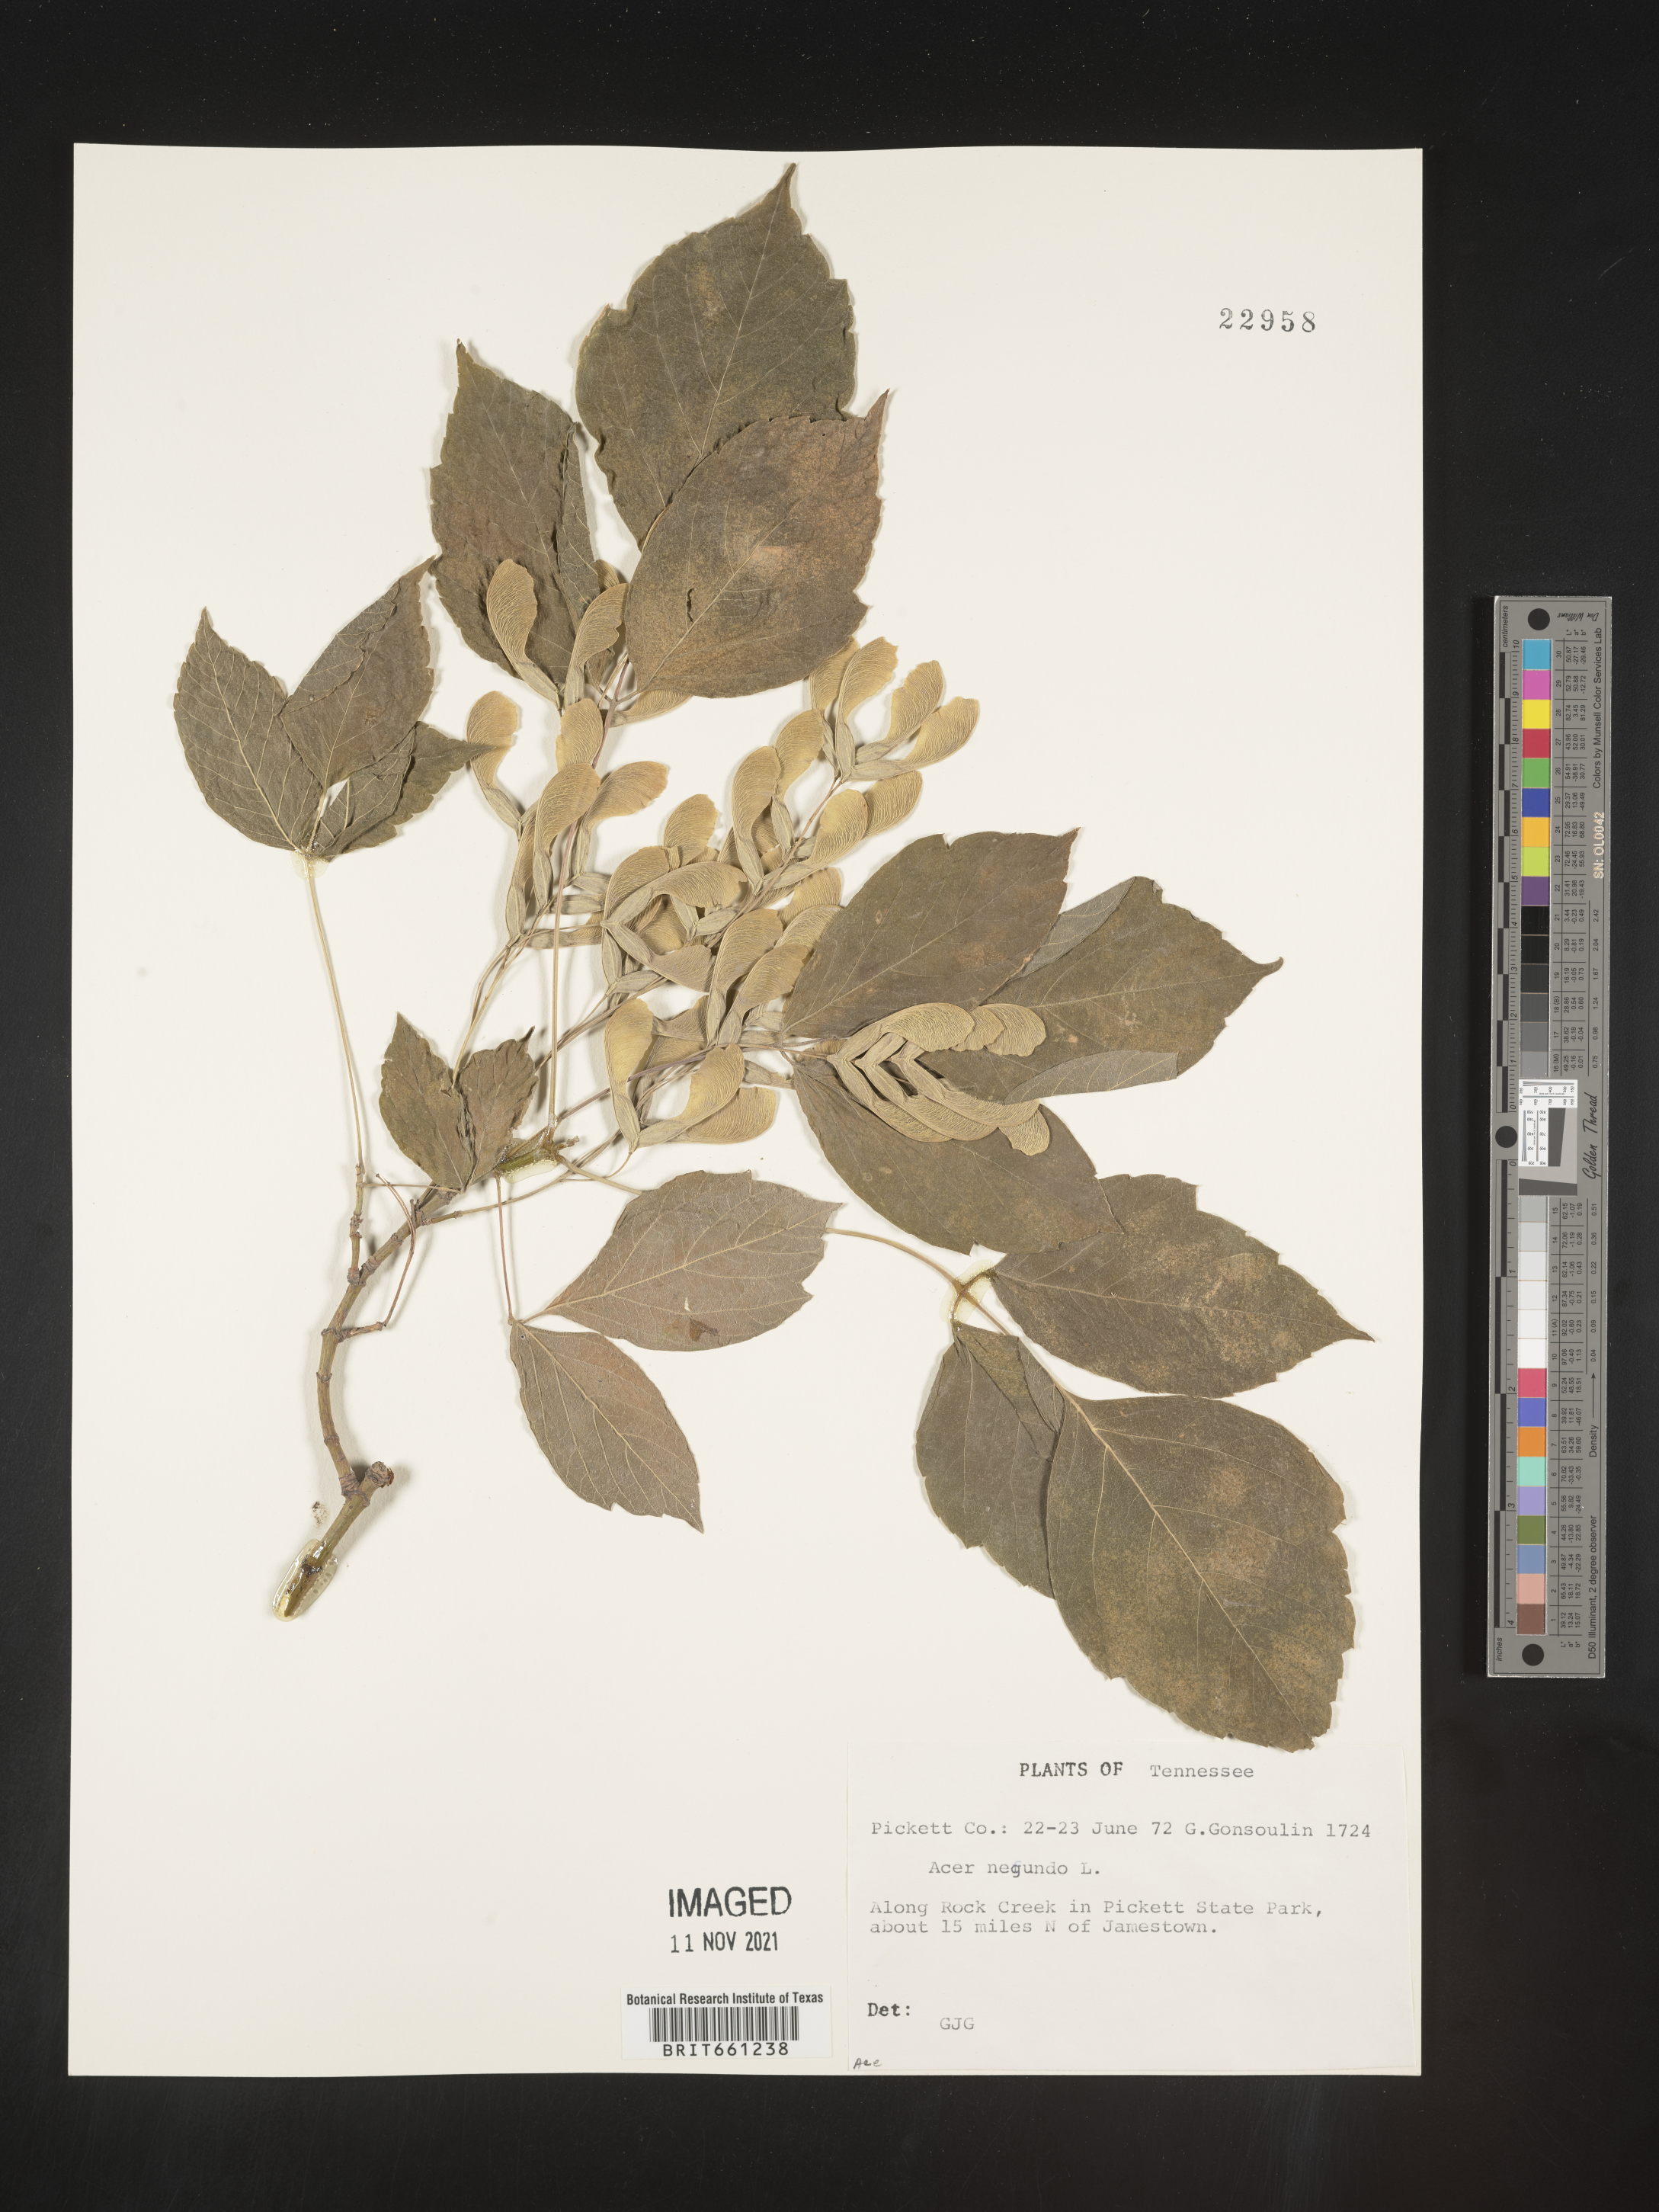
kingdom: Plantae
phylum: Tracheophyta
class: Magnoliopsida
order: Sapindales
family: Sapindaceae
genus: Acer
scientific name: Acer negundo
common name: Ashleaf maple
